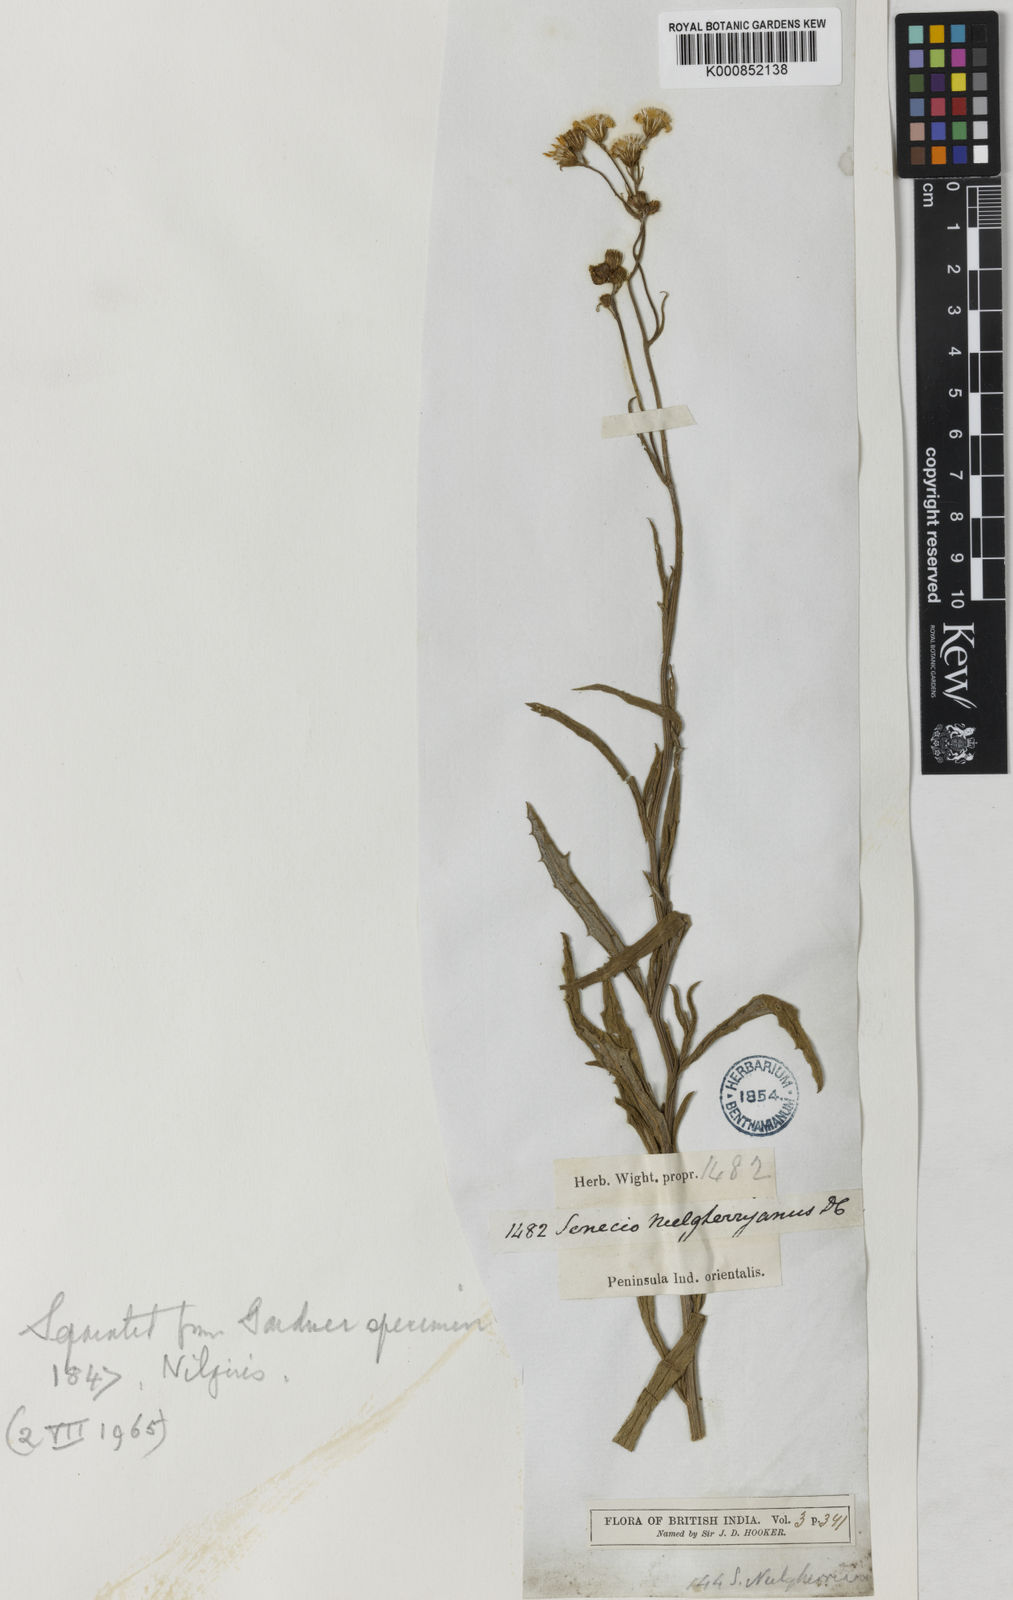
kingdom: Plantae
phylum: Tracheophyta
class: Magnoliopsida
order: Asterales
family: Asteraceae
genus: Senecio
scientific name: Senecio neelgherryanus
